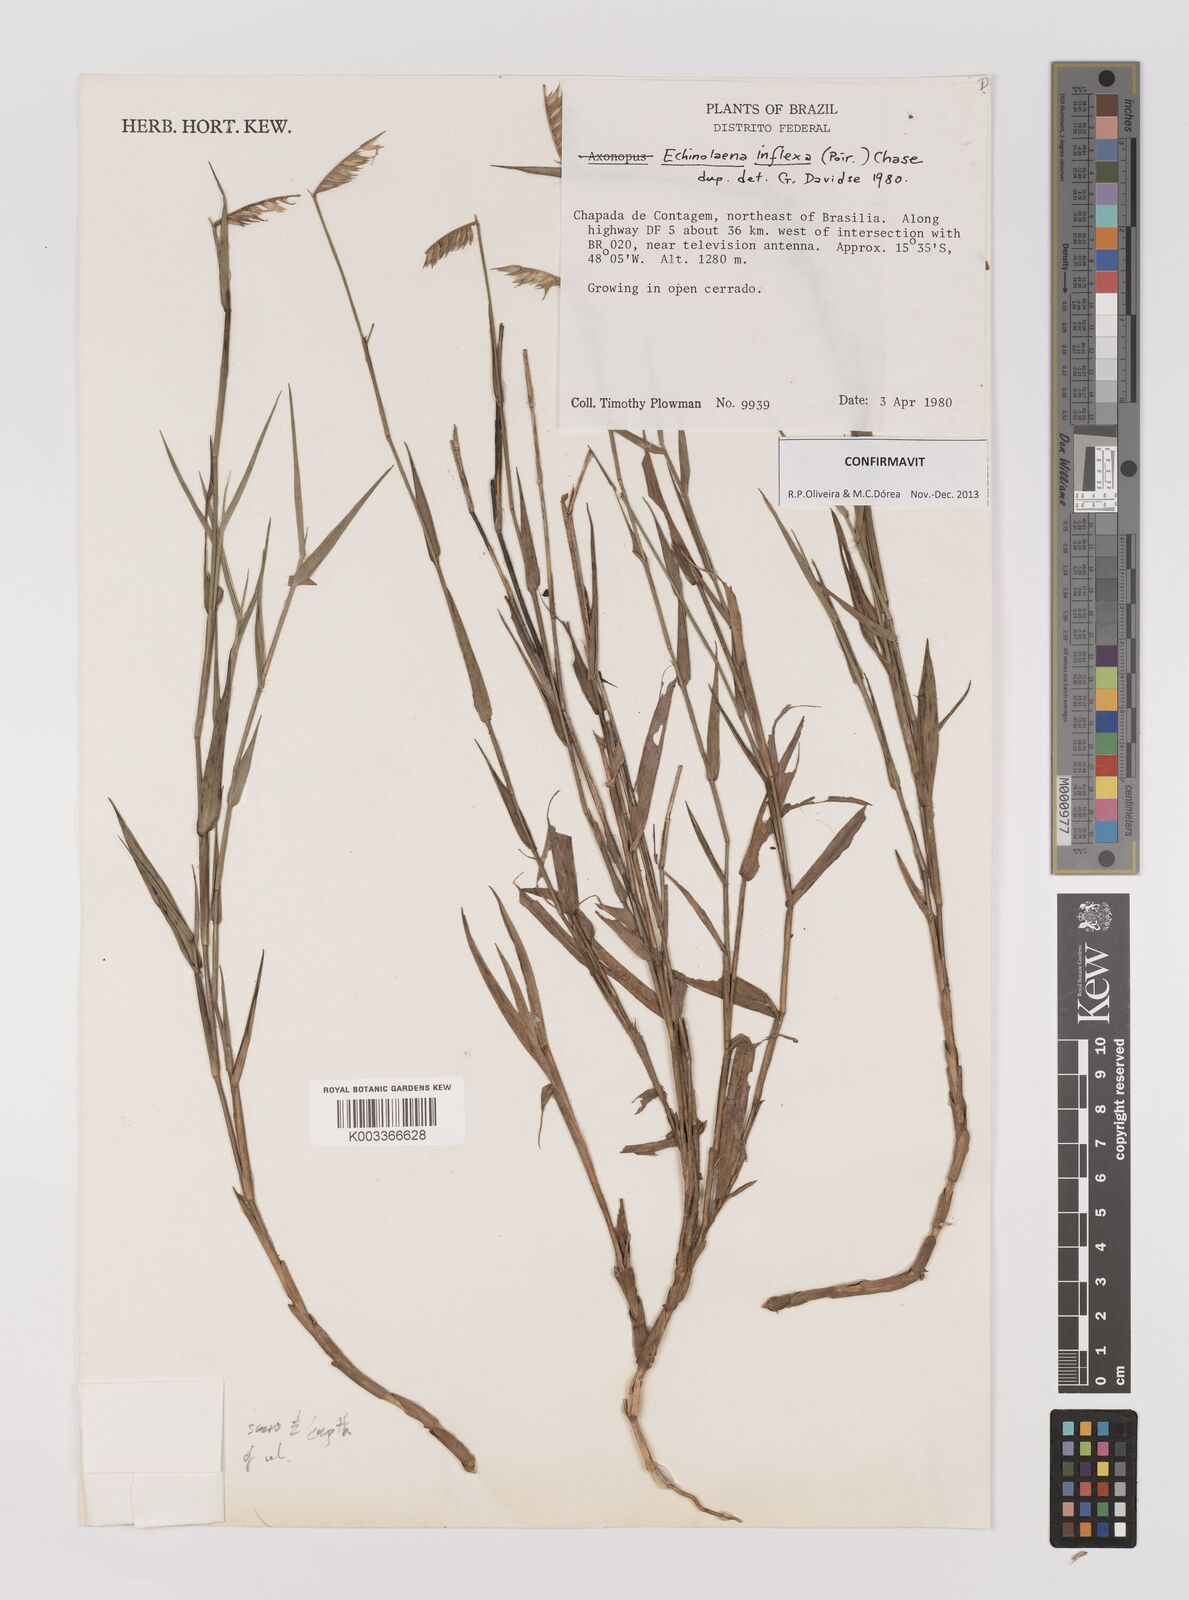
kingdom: Plantae
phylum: Tracheophyta
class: Liliopsida
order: Poales
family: Poaceae
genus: Echinolaena
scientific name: Echinolaena inflexa
